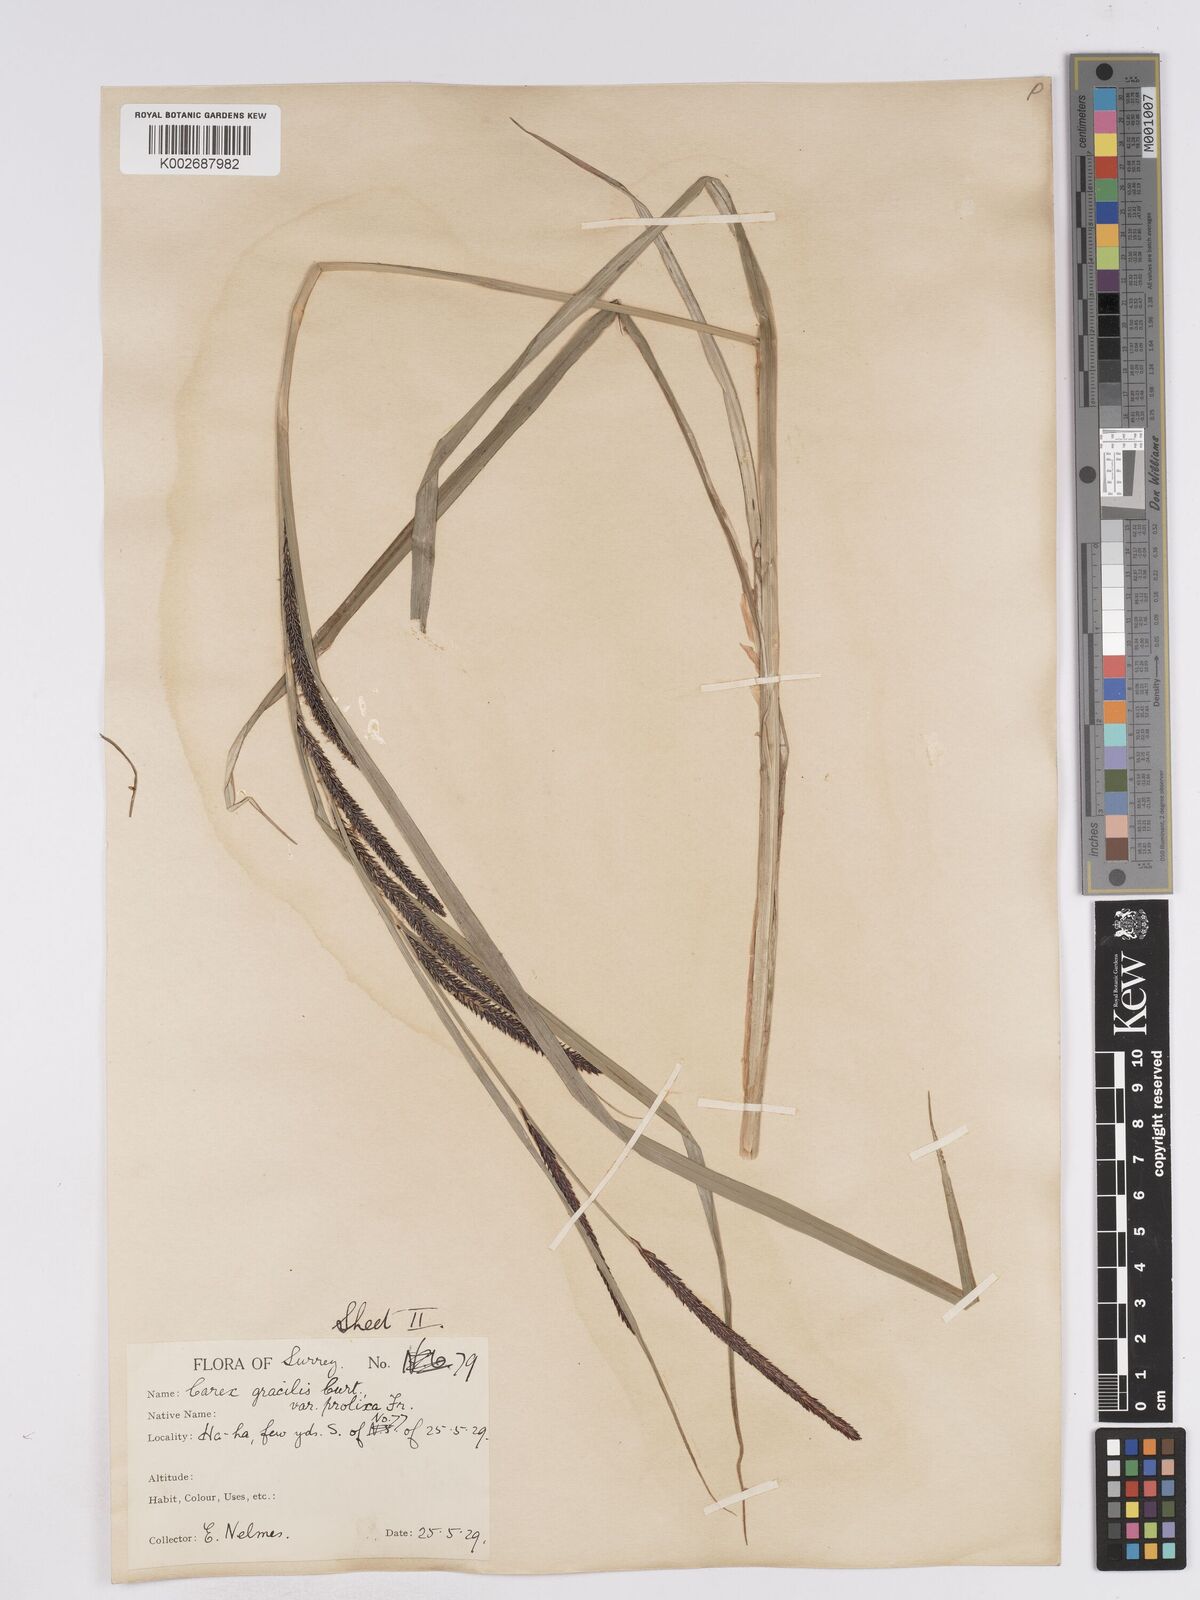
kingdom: Plantae
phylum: Tracheophyta
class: Liliopsida
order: Poales
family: Cyperaceae
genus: Carex
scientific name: Carex acuta
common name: Slender tufted-sedge
